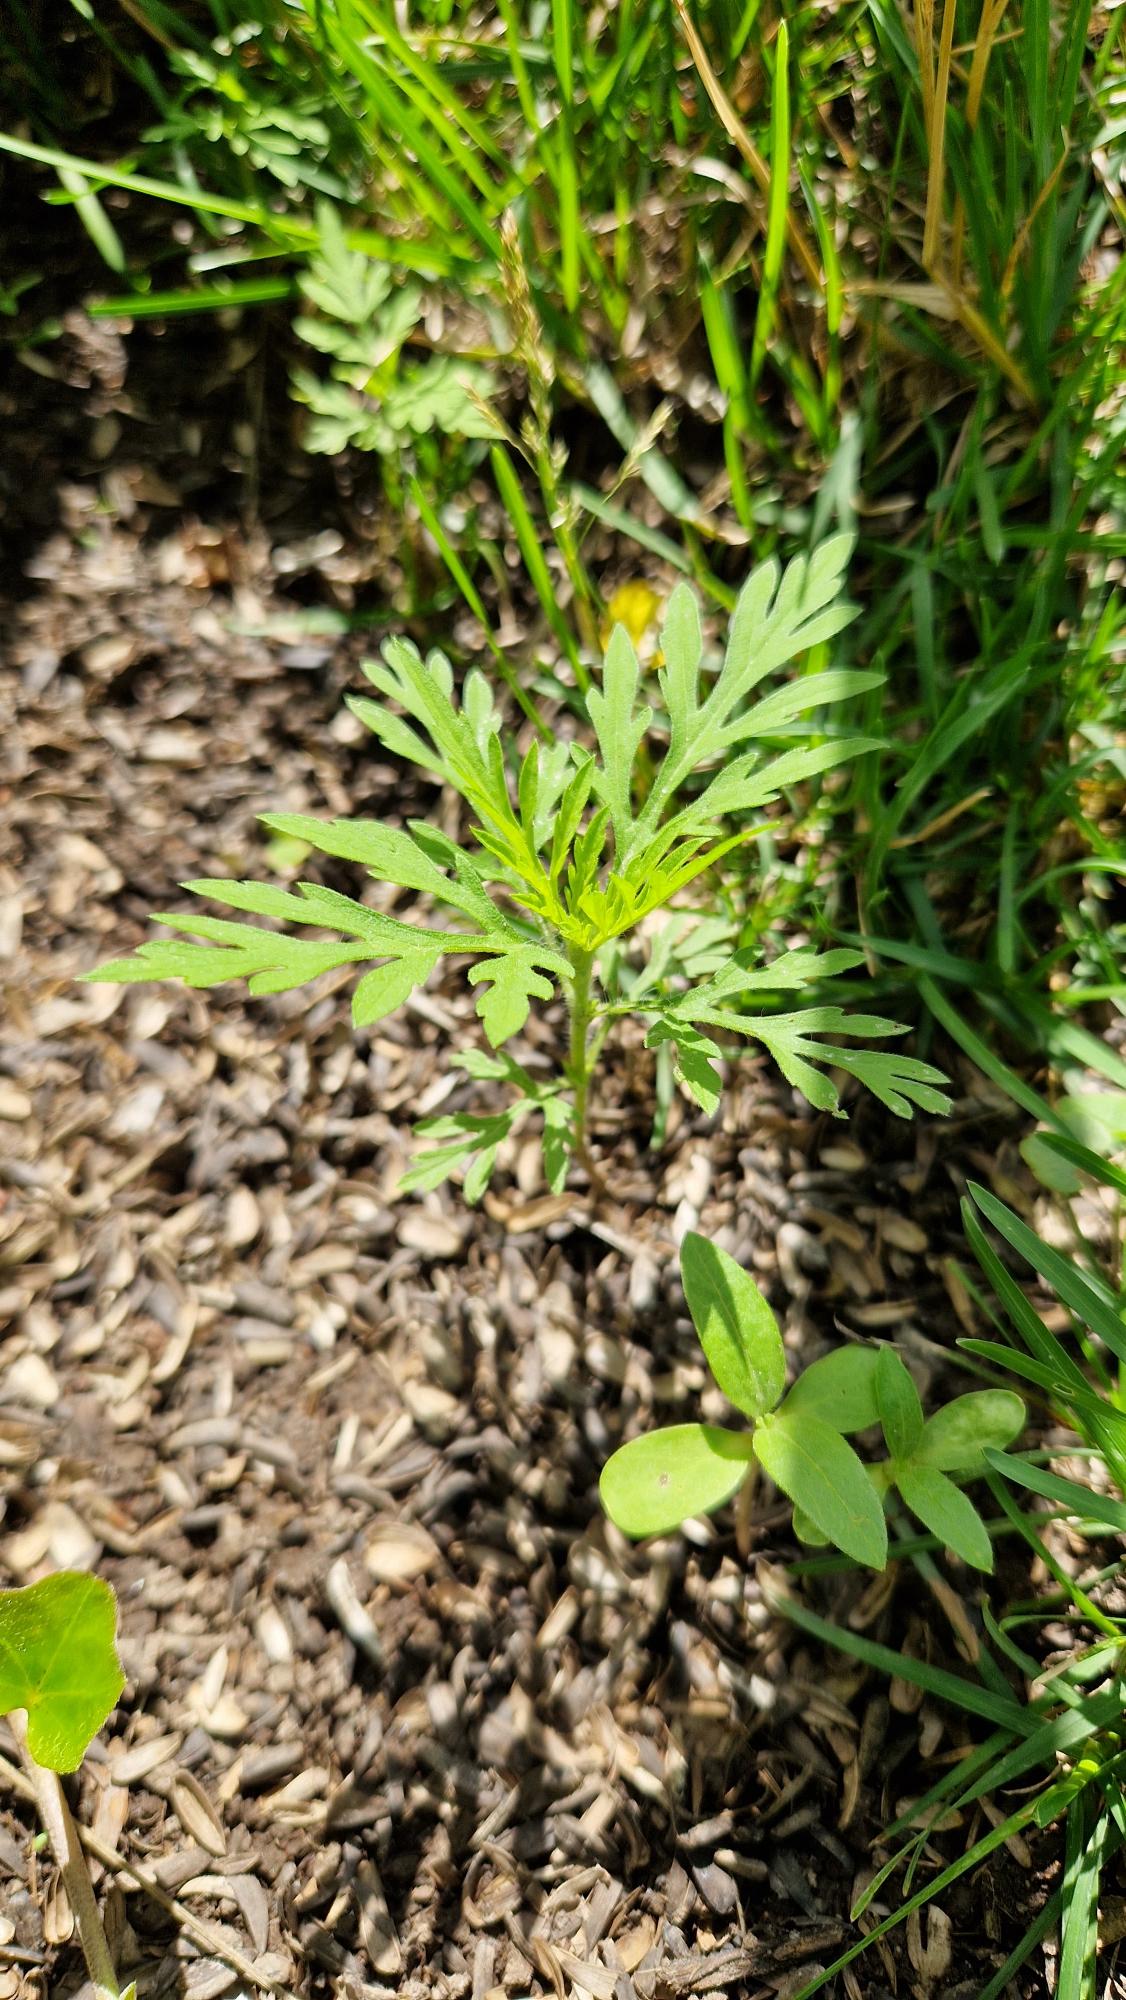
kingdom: Plantae
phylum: Tracheophyta
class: Magnoliopsida
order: Asterales
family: Asteraceae
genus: Ambrosia
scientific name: Ambrosia artemisiifolia
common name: Bynke-ambrosie
